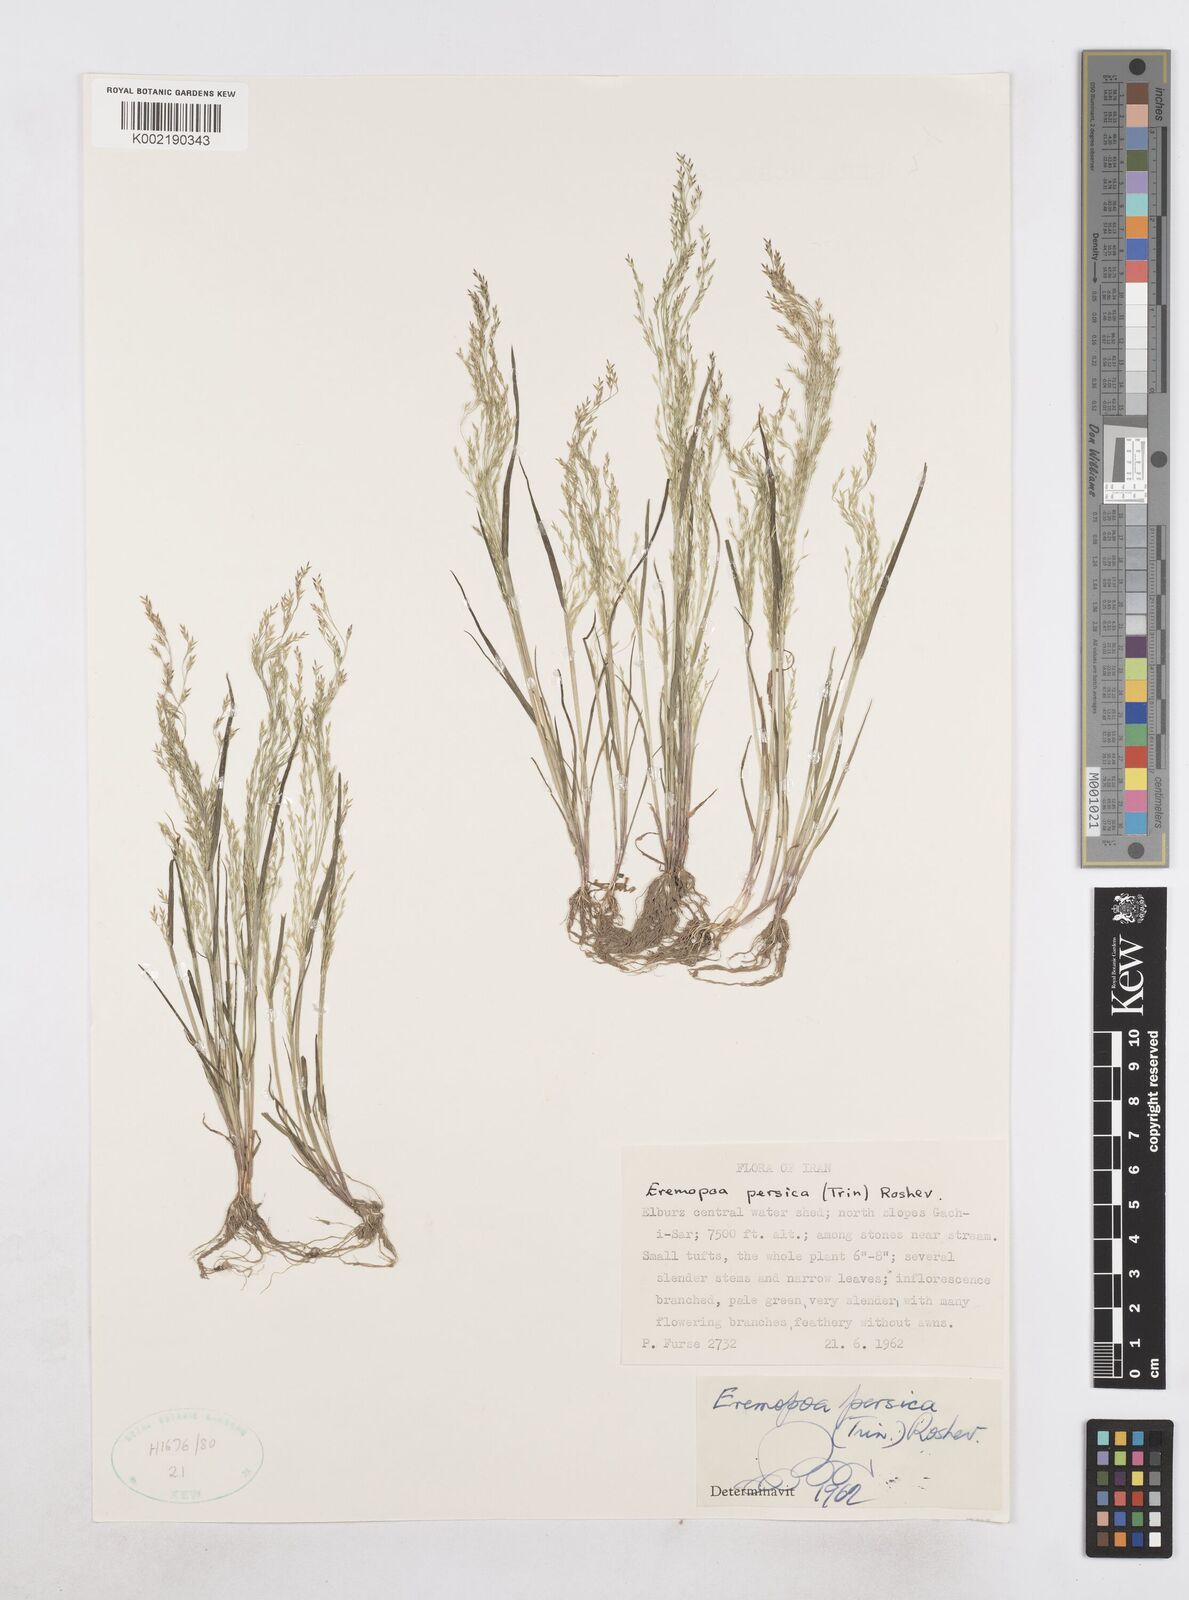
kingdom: Plantae
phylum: Tracheophyta
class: Liliopsida
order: Poales
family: Poaceae
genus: Poa
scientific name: Poa persica
